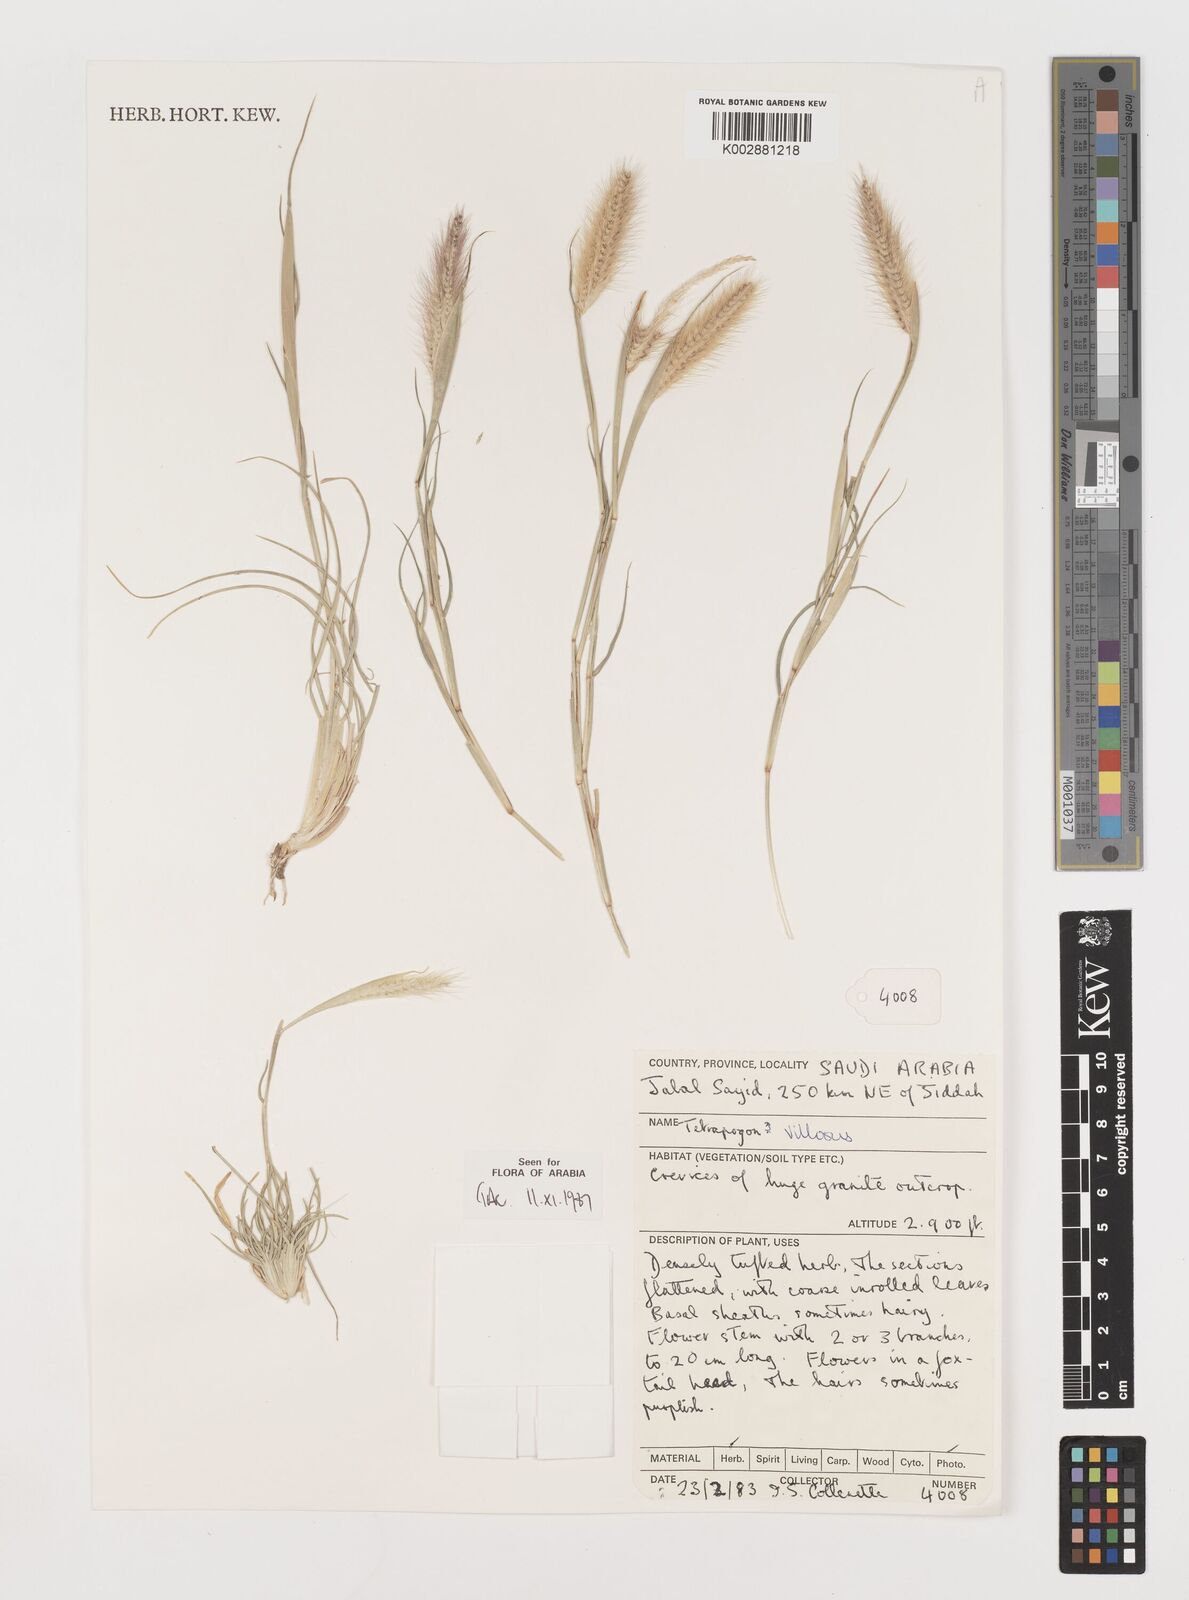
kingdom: Plantae
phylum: Tracheophyta
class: Liliopsida
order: Poales
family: Poaceae
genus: Tetrapogon
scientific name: Tetrapogon villosus
